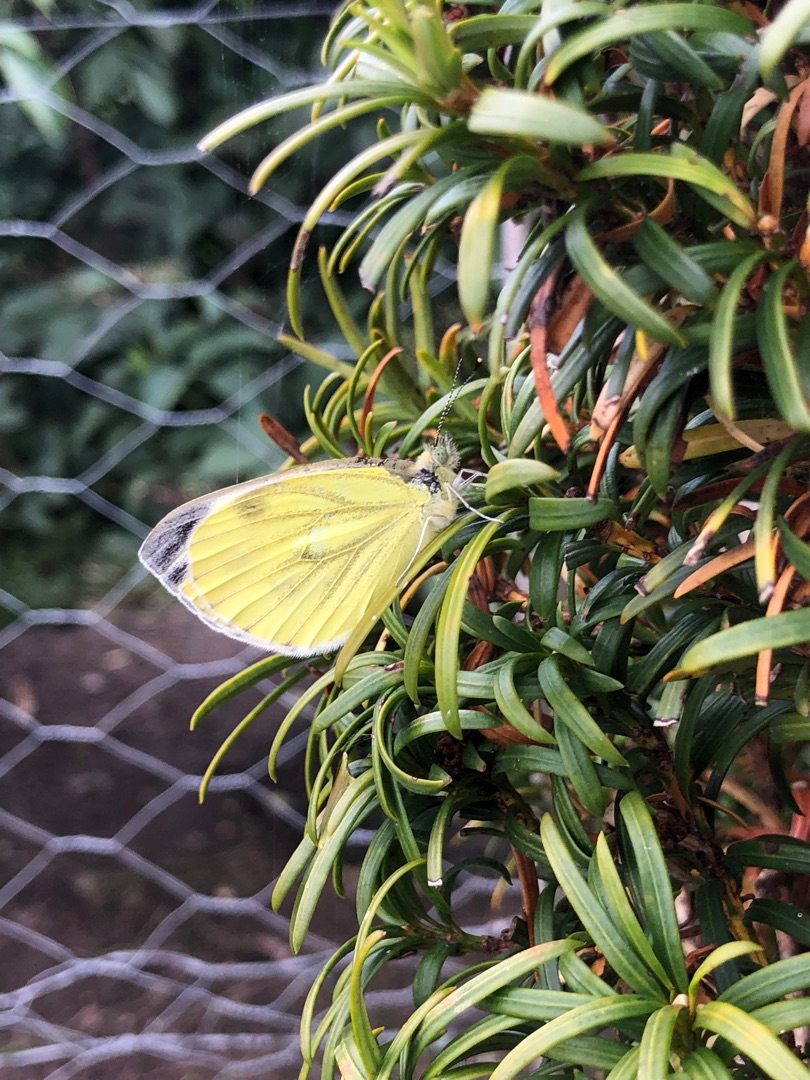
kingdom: Animalia
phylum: Arthropoda
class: Insecta
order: Lepidoptera
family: Pieridae
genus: Pieris
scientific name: Pieris napi
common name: Grønåret kålsommerfugl
